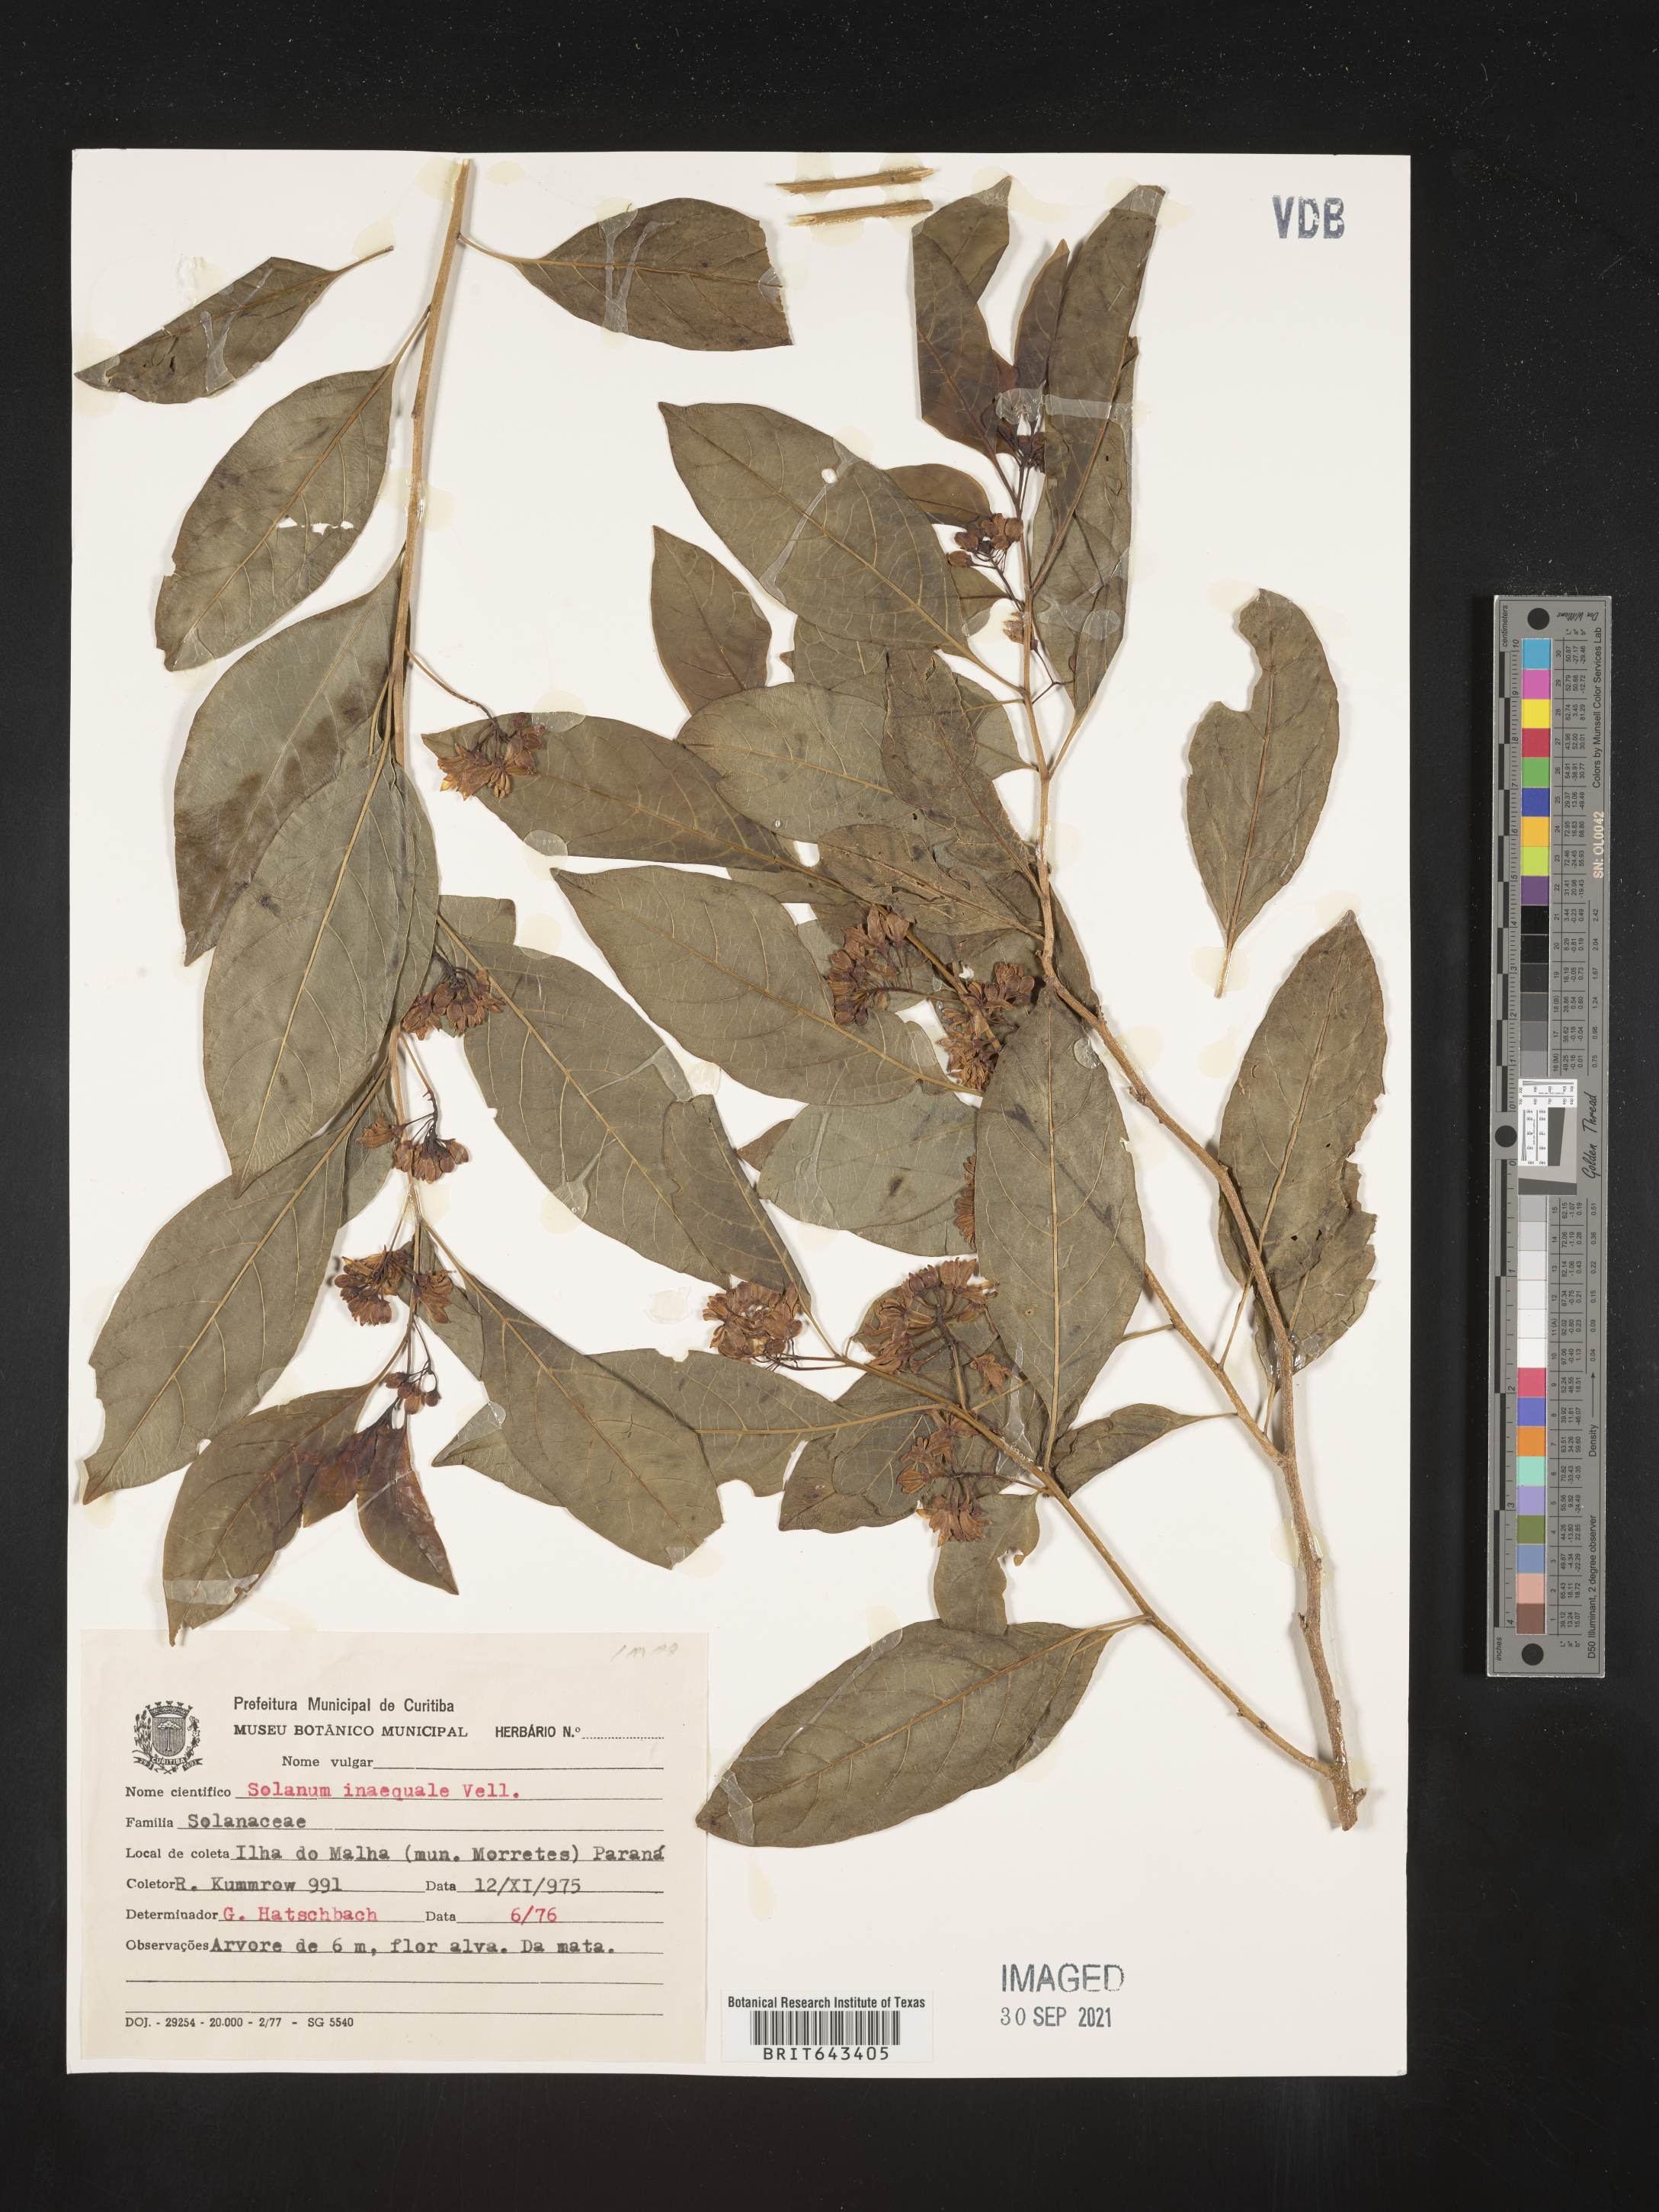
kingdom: Plantae
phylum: Tracheophyta
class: Magnoliopsida
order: Solanales
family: Solanaceae
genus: Solanum
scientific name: Solanum
